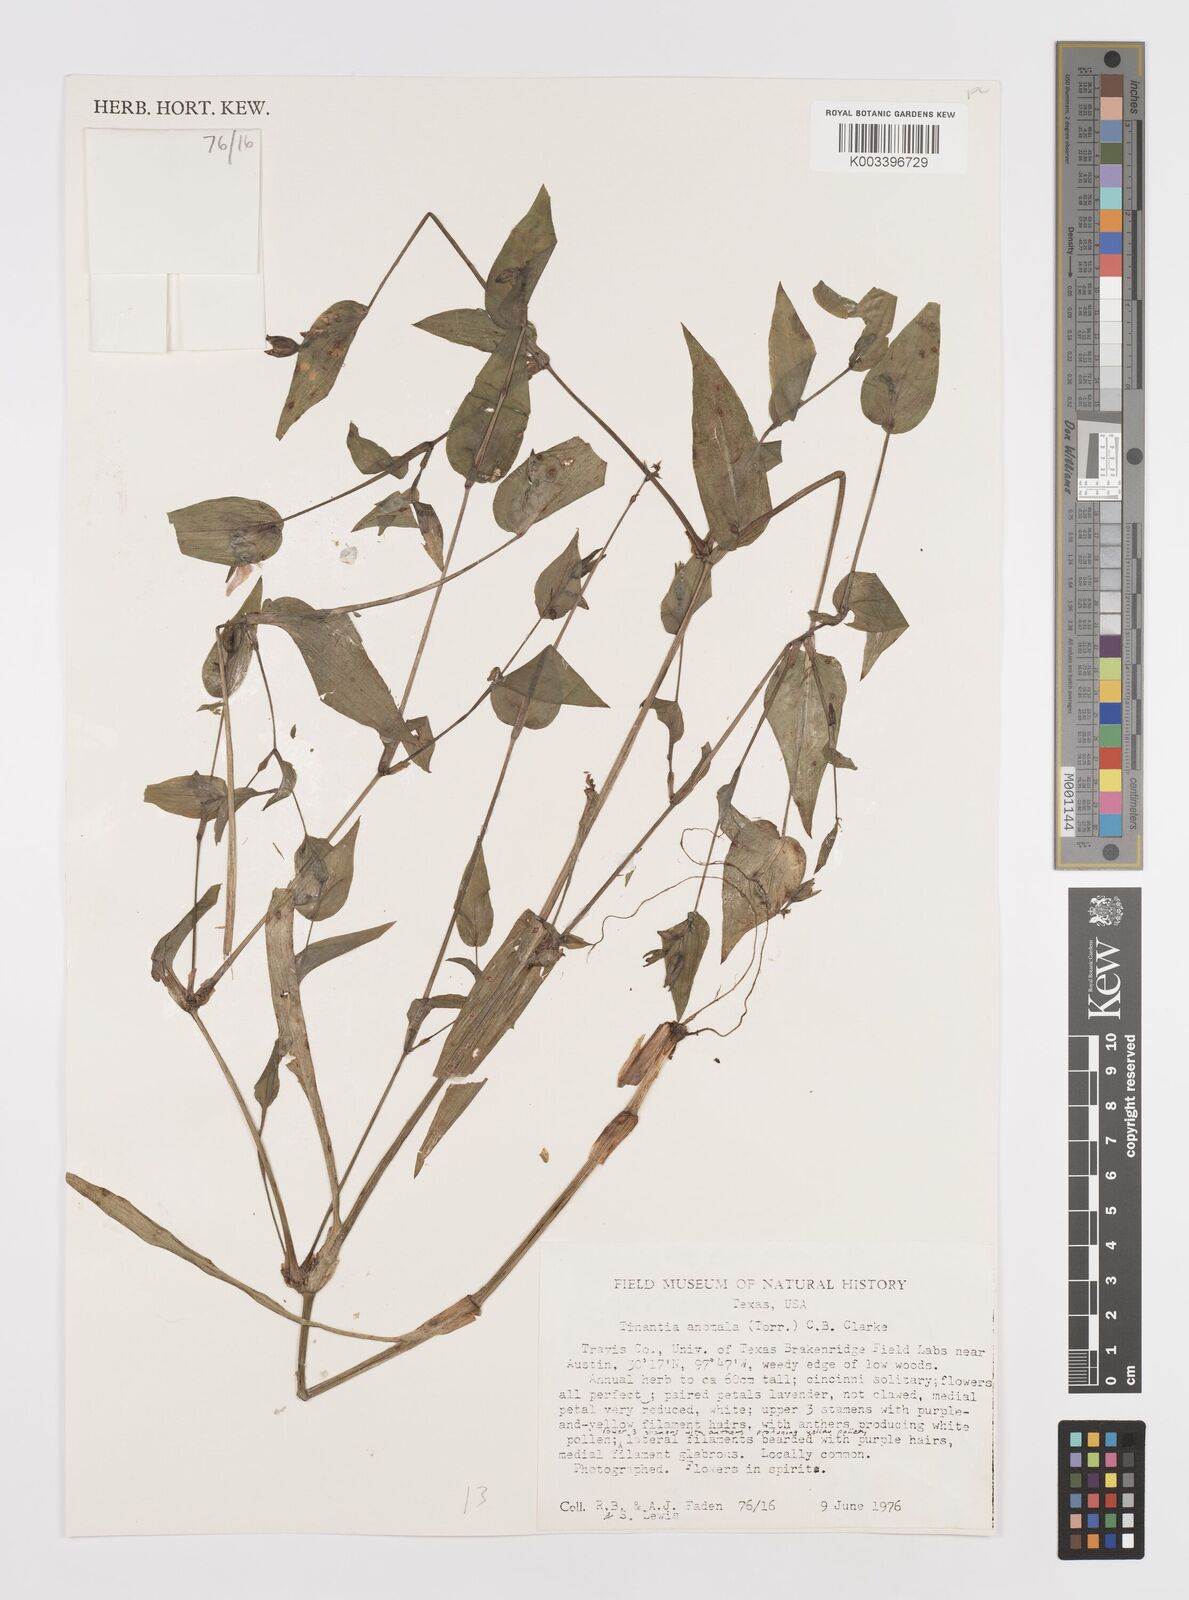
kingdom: Plantae
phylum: Tracheophyta
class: Liliopsida
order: Commelinales
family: Commelinaceae
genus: Tinantia
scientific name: Tinantia anomala
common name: False dayflower
